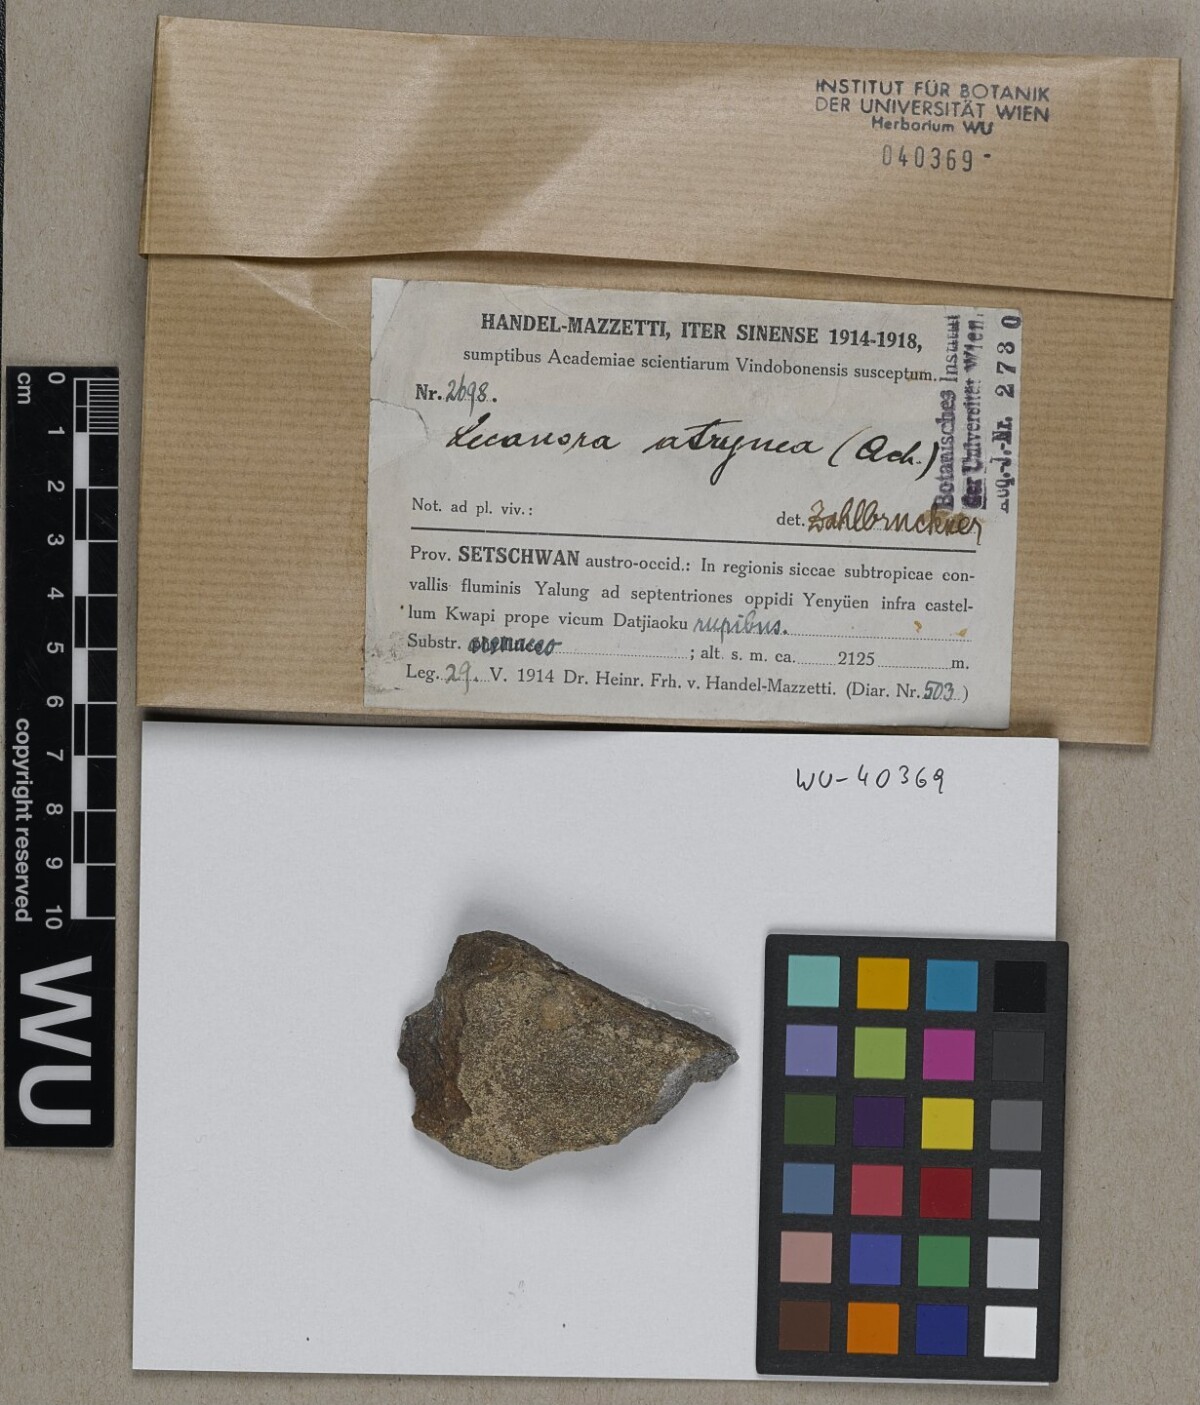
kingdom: Fungi
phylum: Ascomycota
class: Lecanoromycetes
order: Lecanorales
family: Lecanoraceae
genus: Lecanora
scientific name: Lecanora cenisia
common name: Smoky rim lichen
